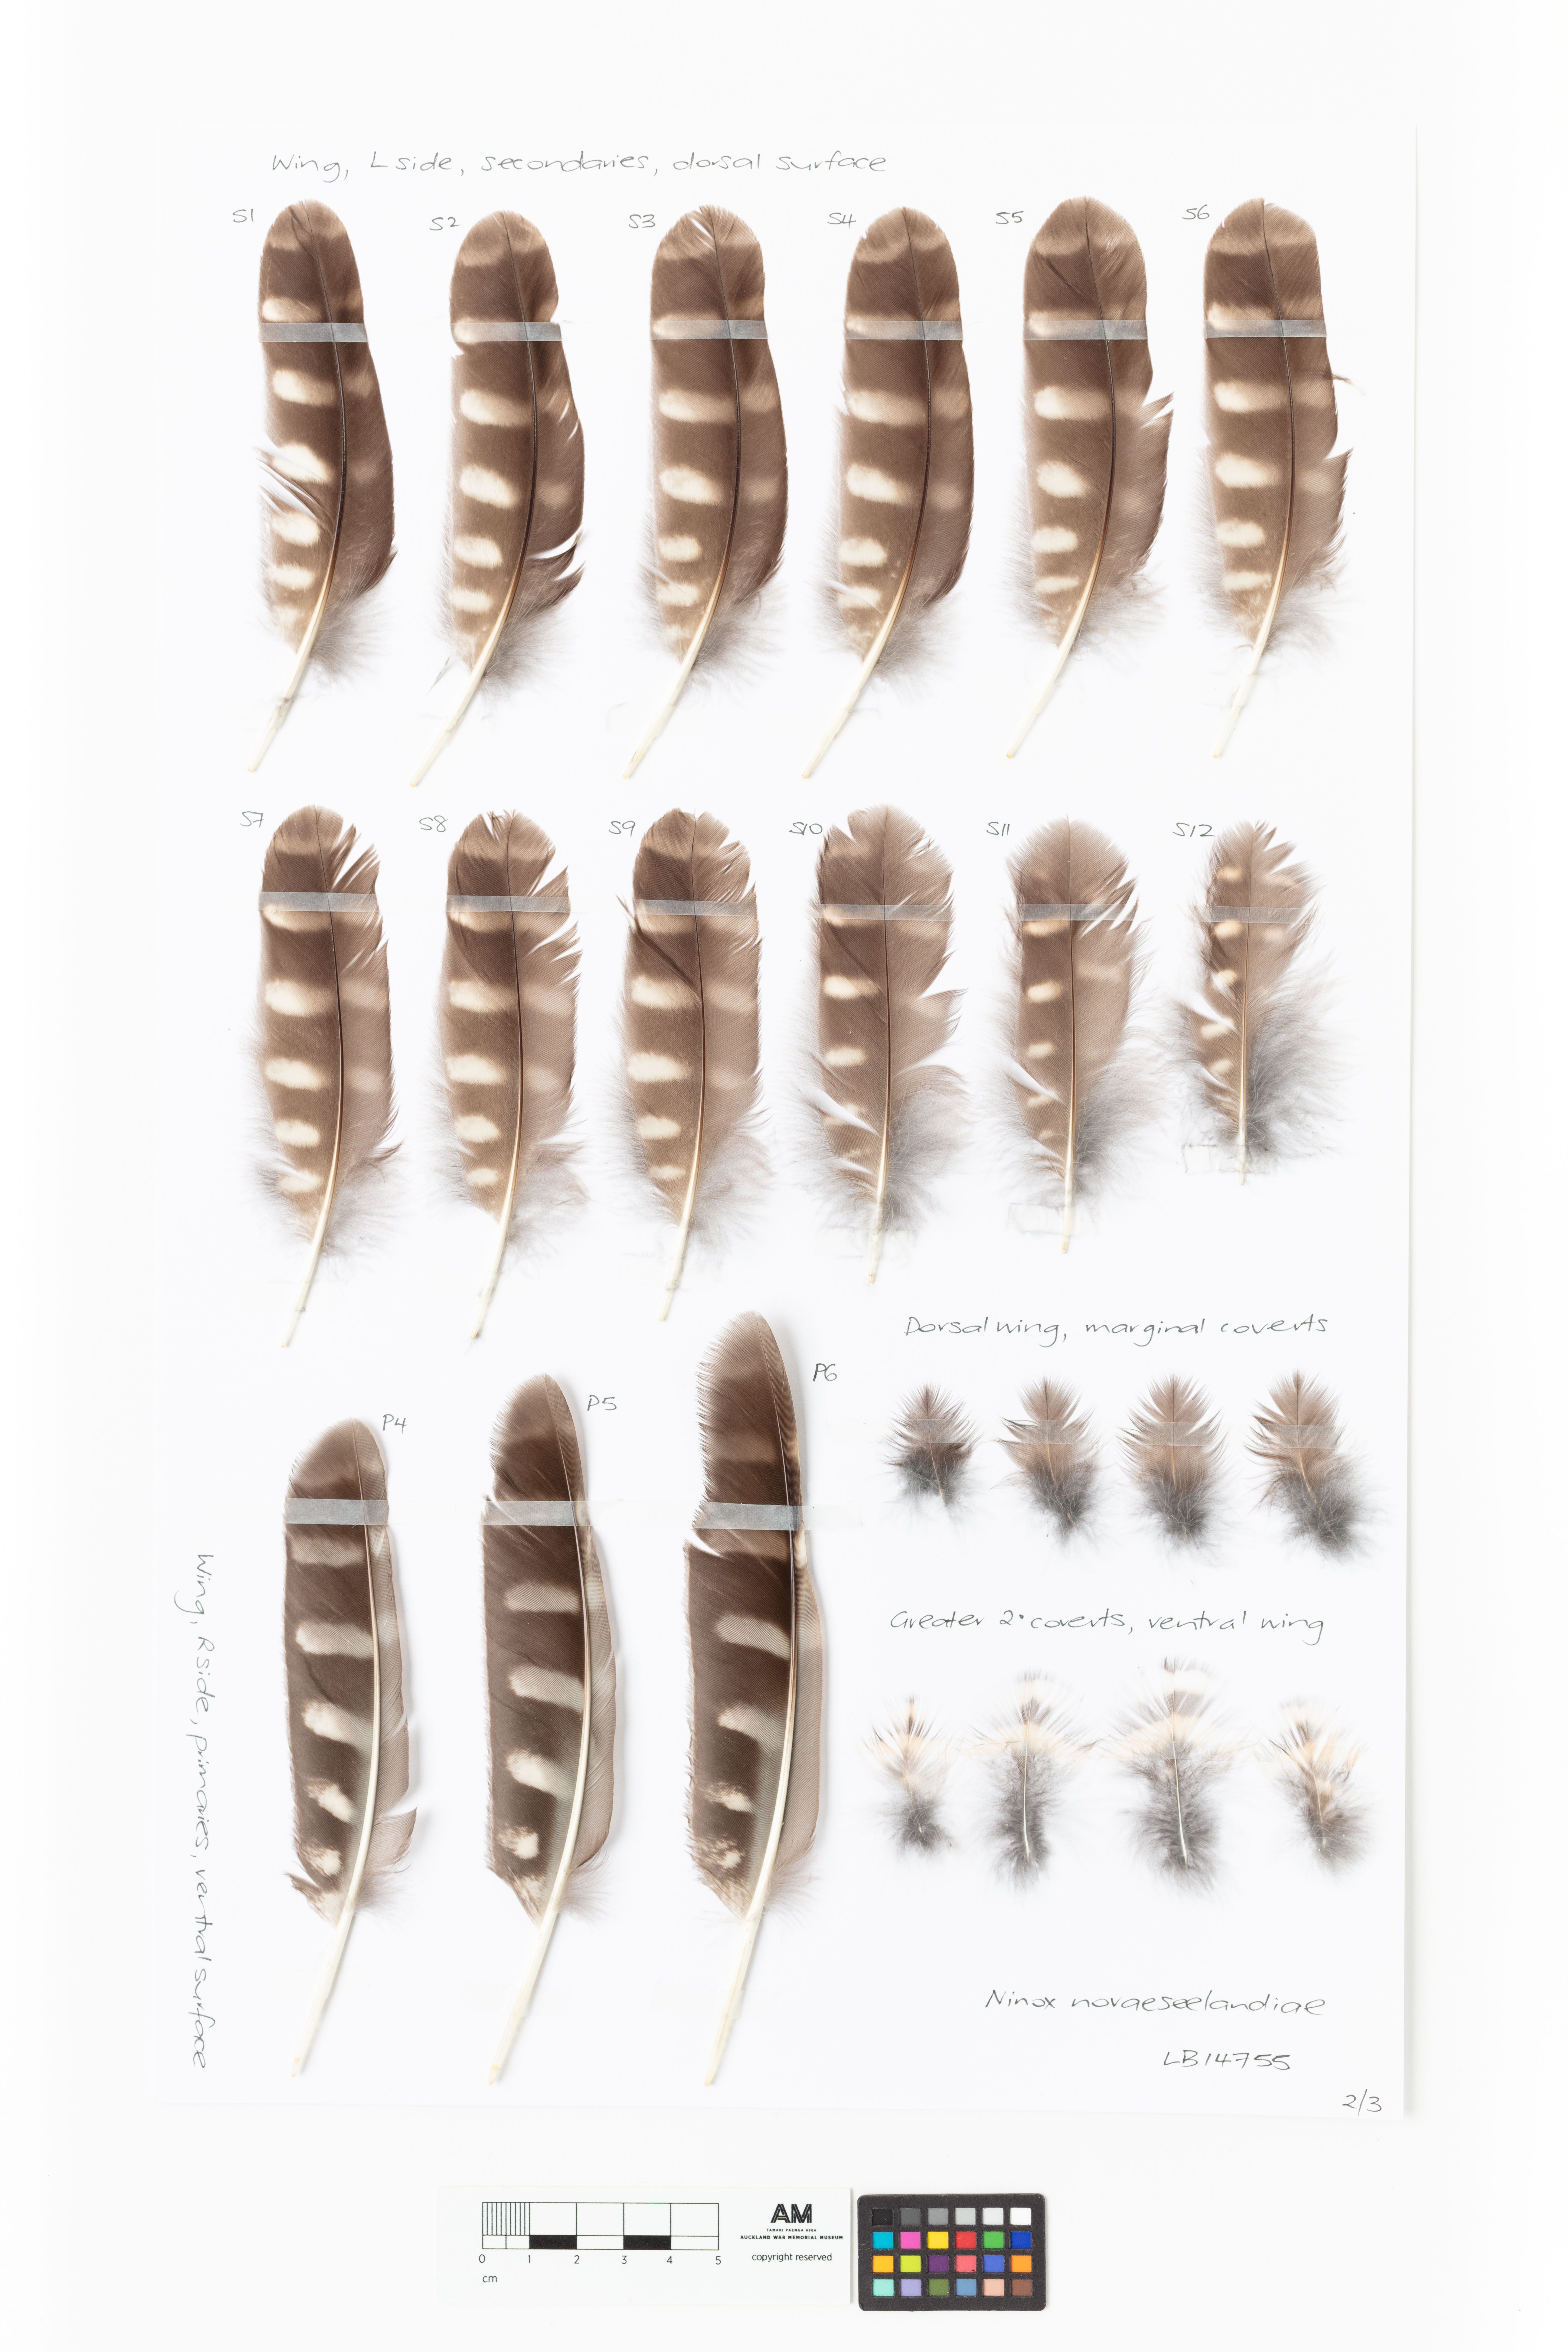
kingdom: Animalia
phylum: Chordata
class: Aves
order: Strigiformes
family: Strigidae
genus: Ninox
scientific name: Ninox novaeseelandiae
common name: Morepork
